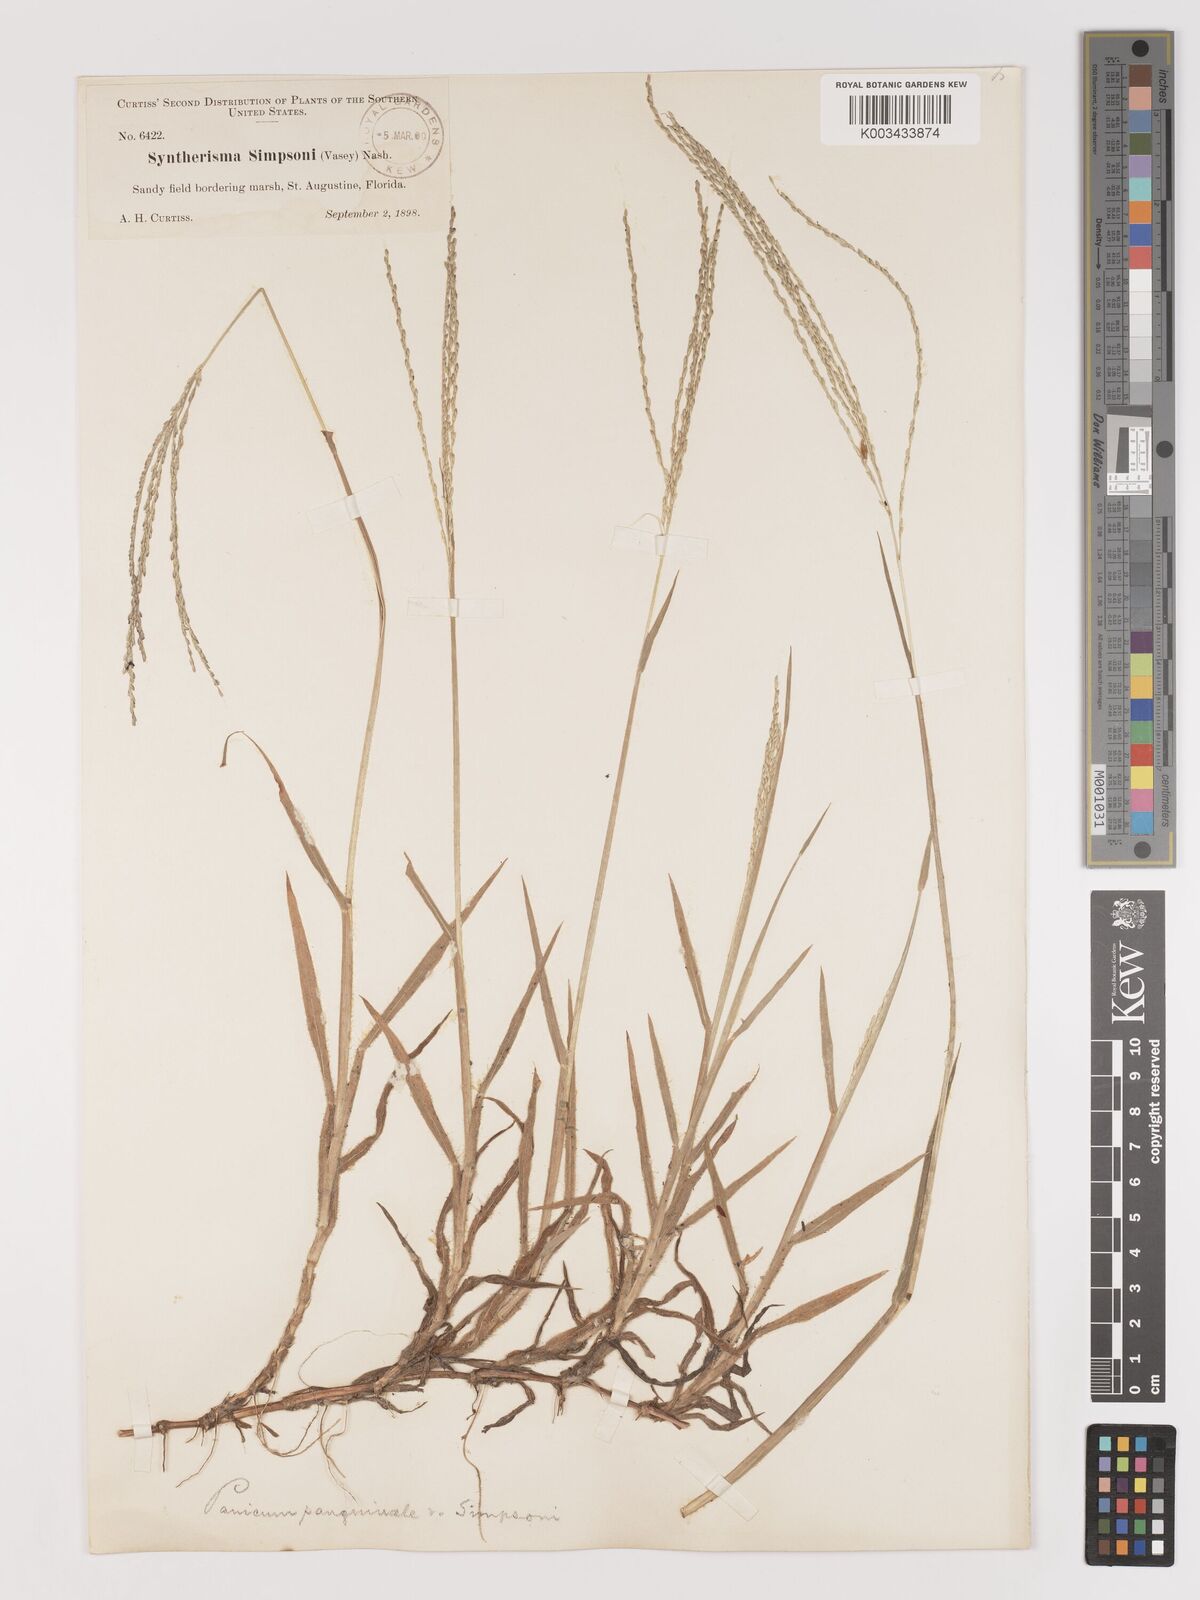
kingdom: Plantae
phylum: Tracheophyta
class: Liliopsida
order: Poales
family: Poaceae
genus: Digitaria
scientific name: Digitaria texana
